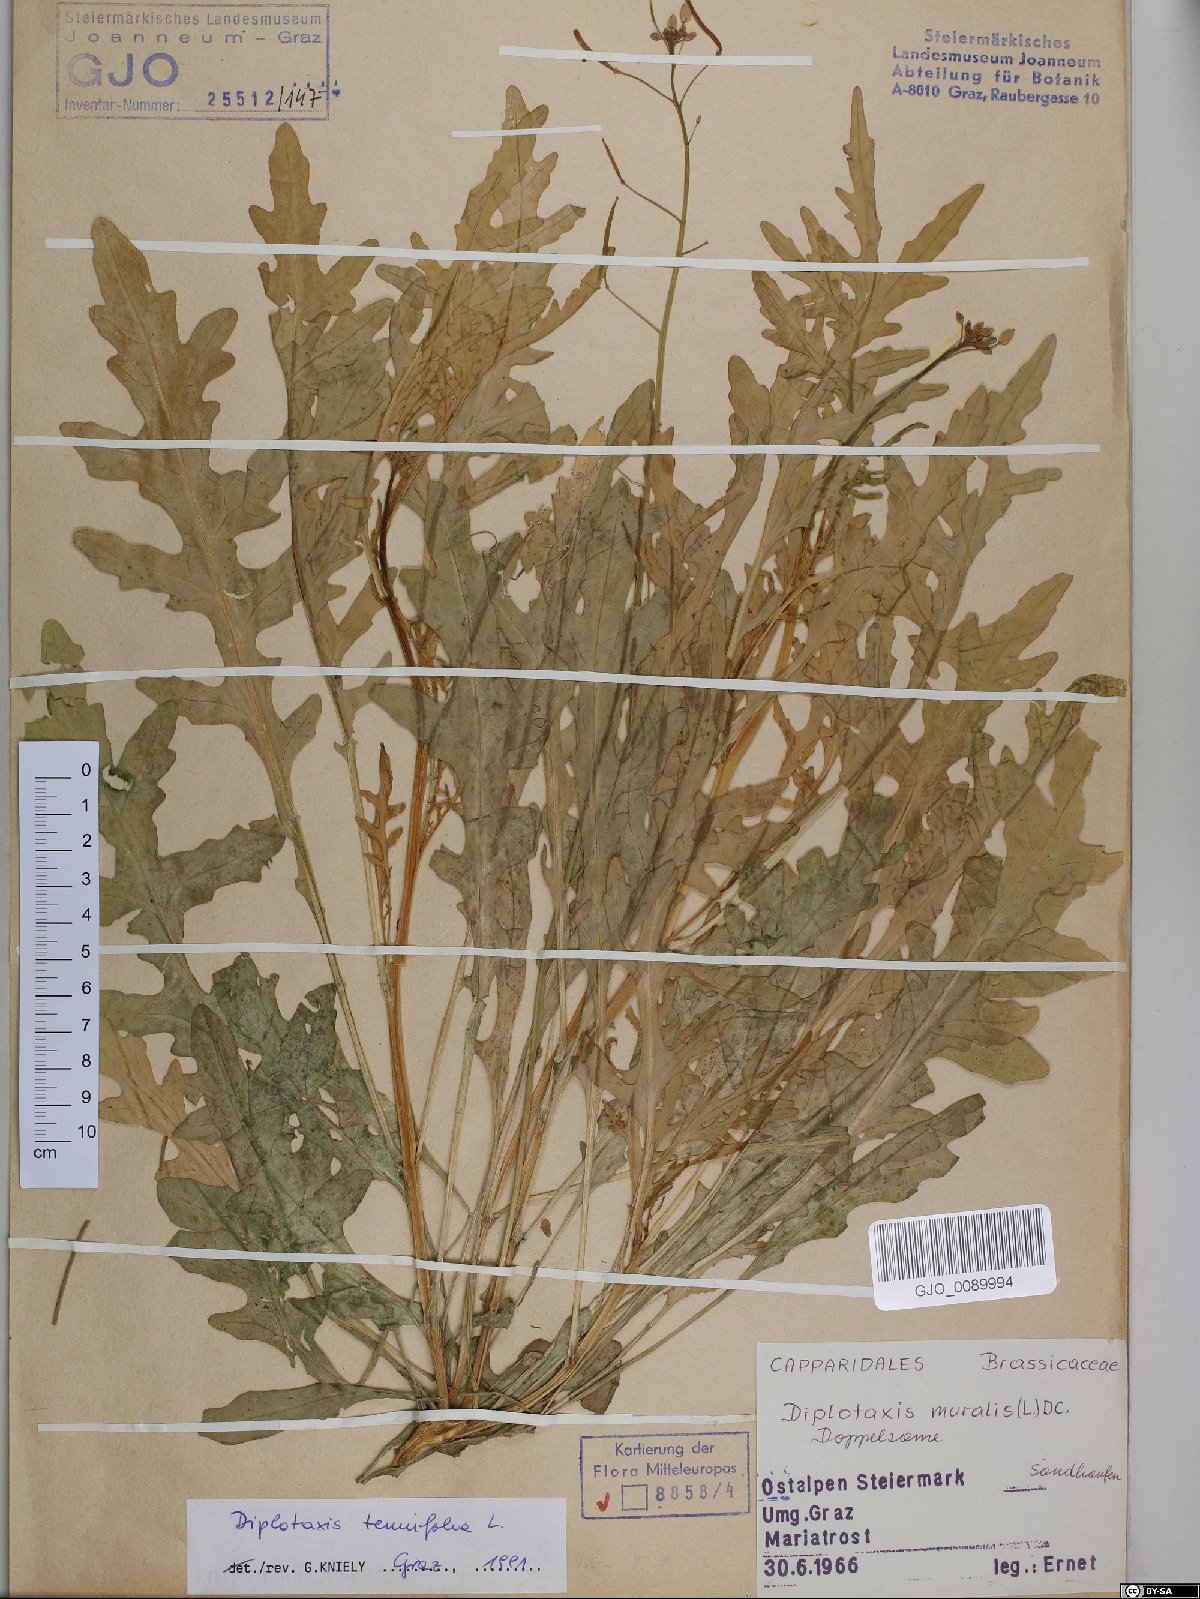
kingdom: Plantae
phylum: Tracheophyta
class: Magnoliopsida
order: Brassicales
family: Brassicaceae
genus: Diplotaxis
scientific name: Diplotaxis tenuifolia
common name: Perennial wall-rocket
